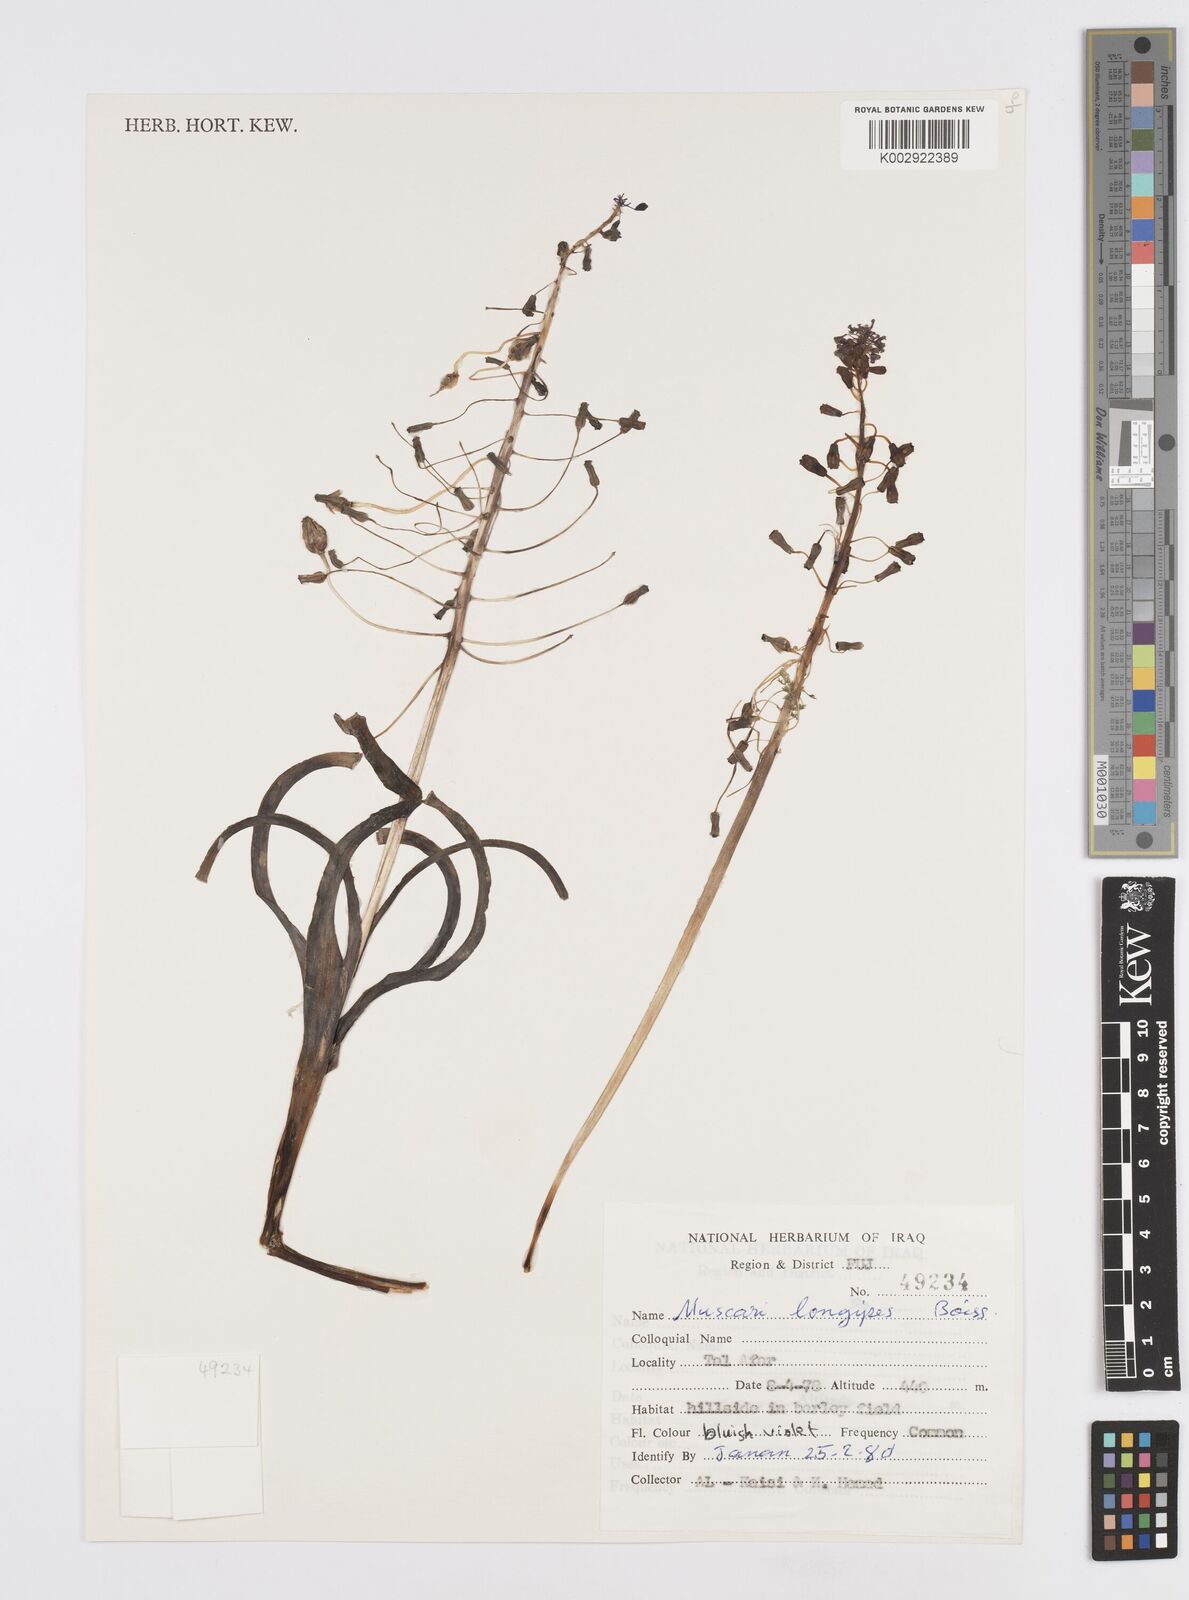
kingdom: Plantae
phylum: Tracheophyta
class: Liliopsida
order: Asparagales
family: Asparagaceae
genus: Muscari
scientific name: Muscari longipes
